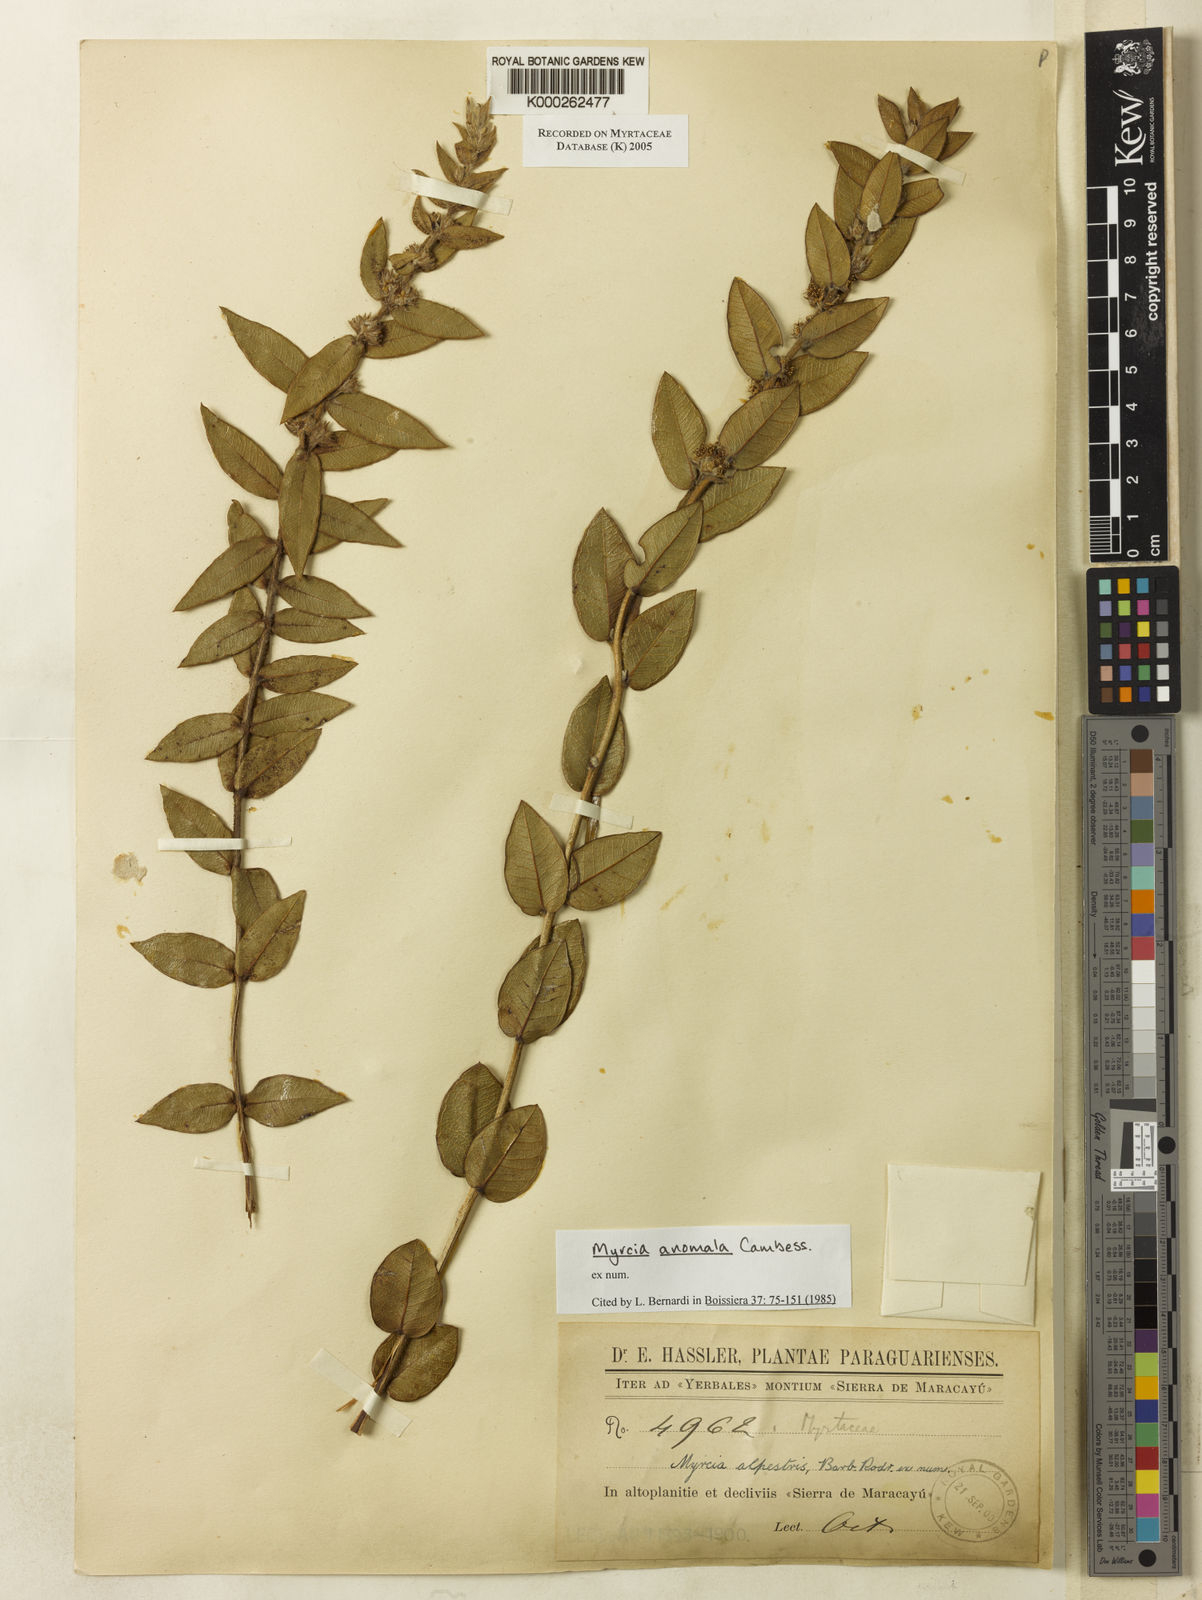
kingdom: Plantae
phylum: Tracheophyta
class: Magnoliopsida
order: Myrtales
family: Myrtaceae
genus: Myrcia
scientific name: Myrcia anomala
